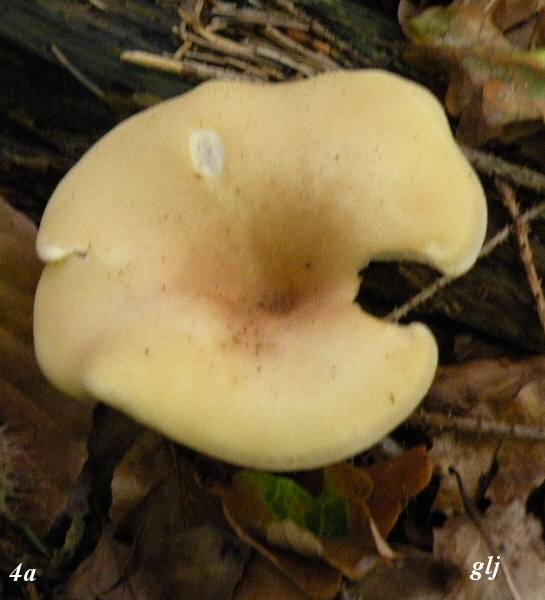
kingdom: Fungi
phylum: Basidiomycota
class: Agaricomycetes
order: Agaricales
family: Tricholomataceae
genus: Paralepista
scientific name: Paralepista flaccida
